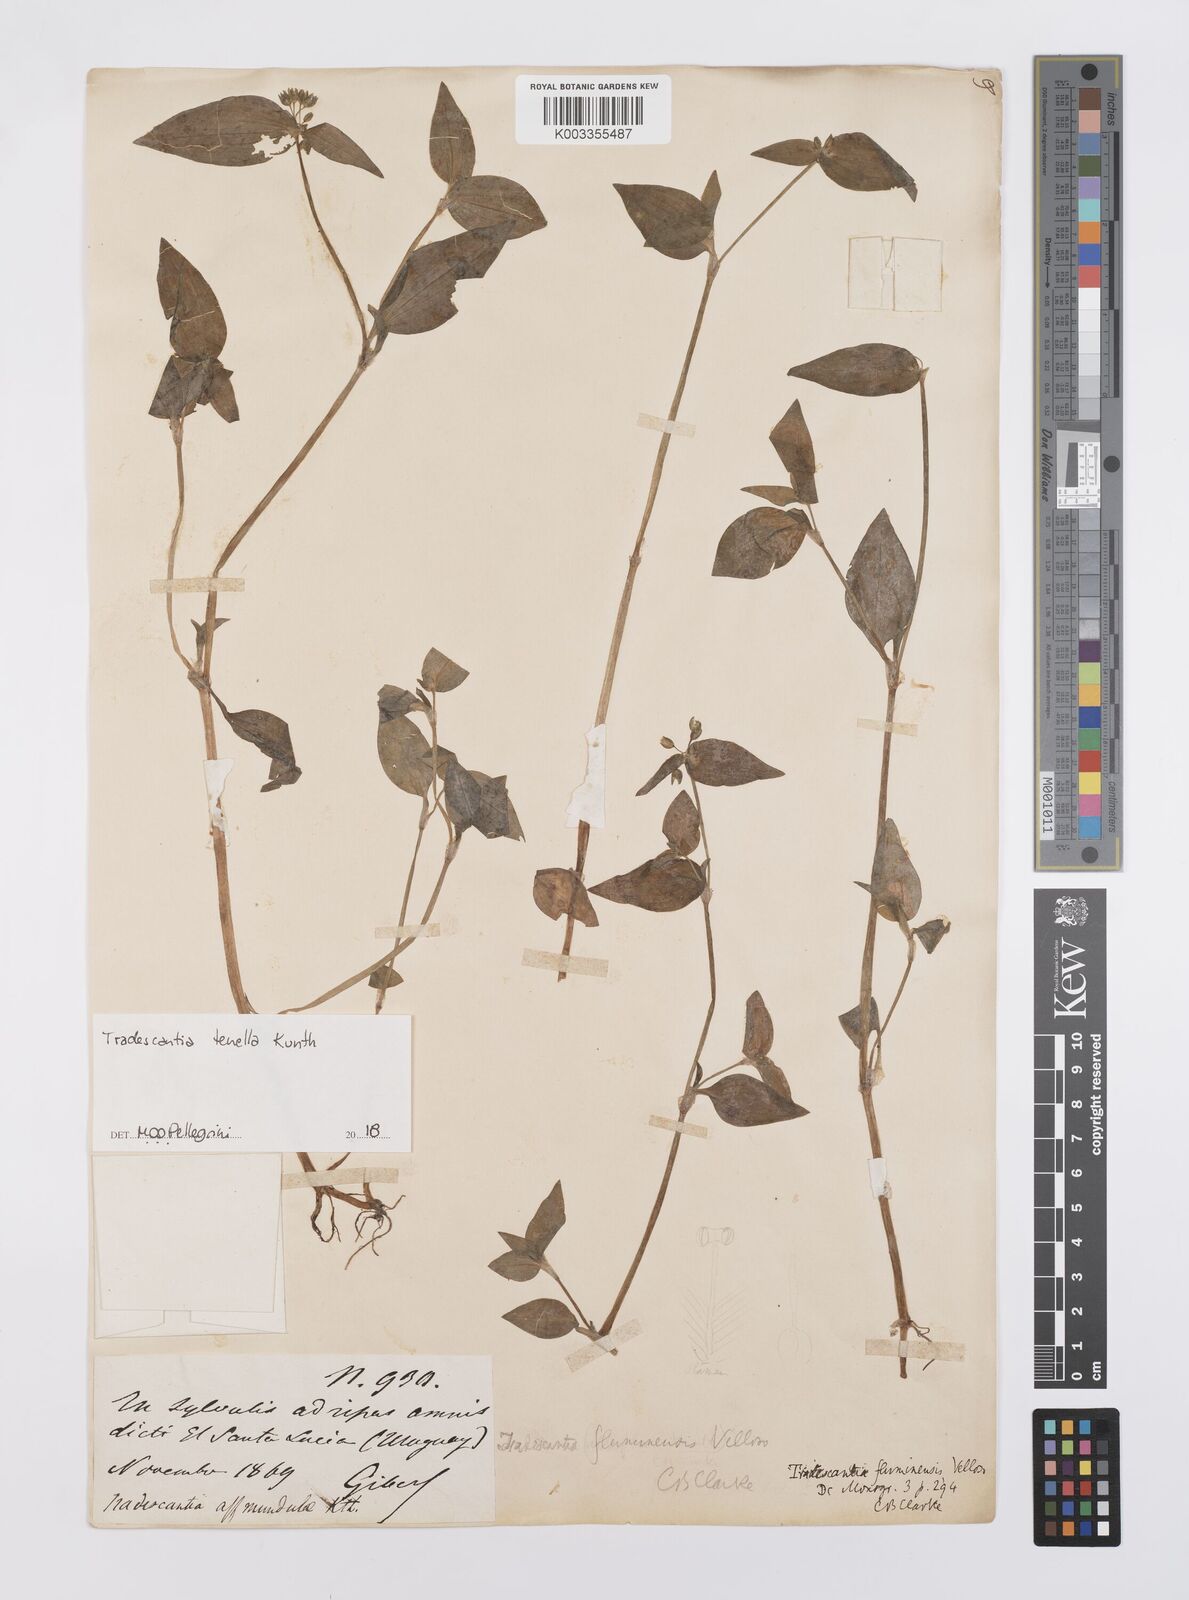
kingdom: Plantae
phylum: Tracheophyta
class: Liliopsida
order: Commelinales
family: Commelinaceae
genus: Tradescantia
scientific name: Tradescantia tenella
